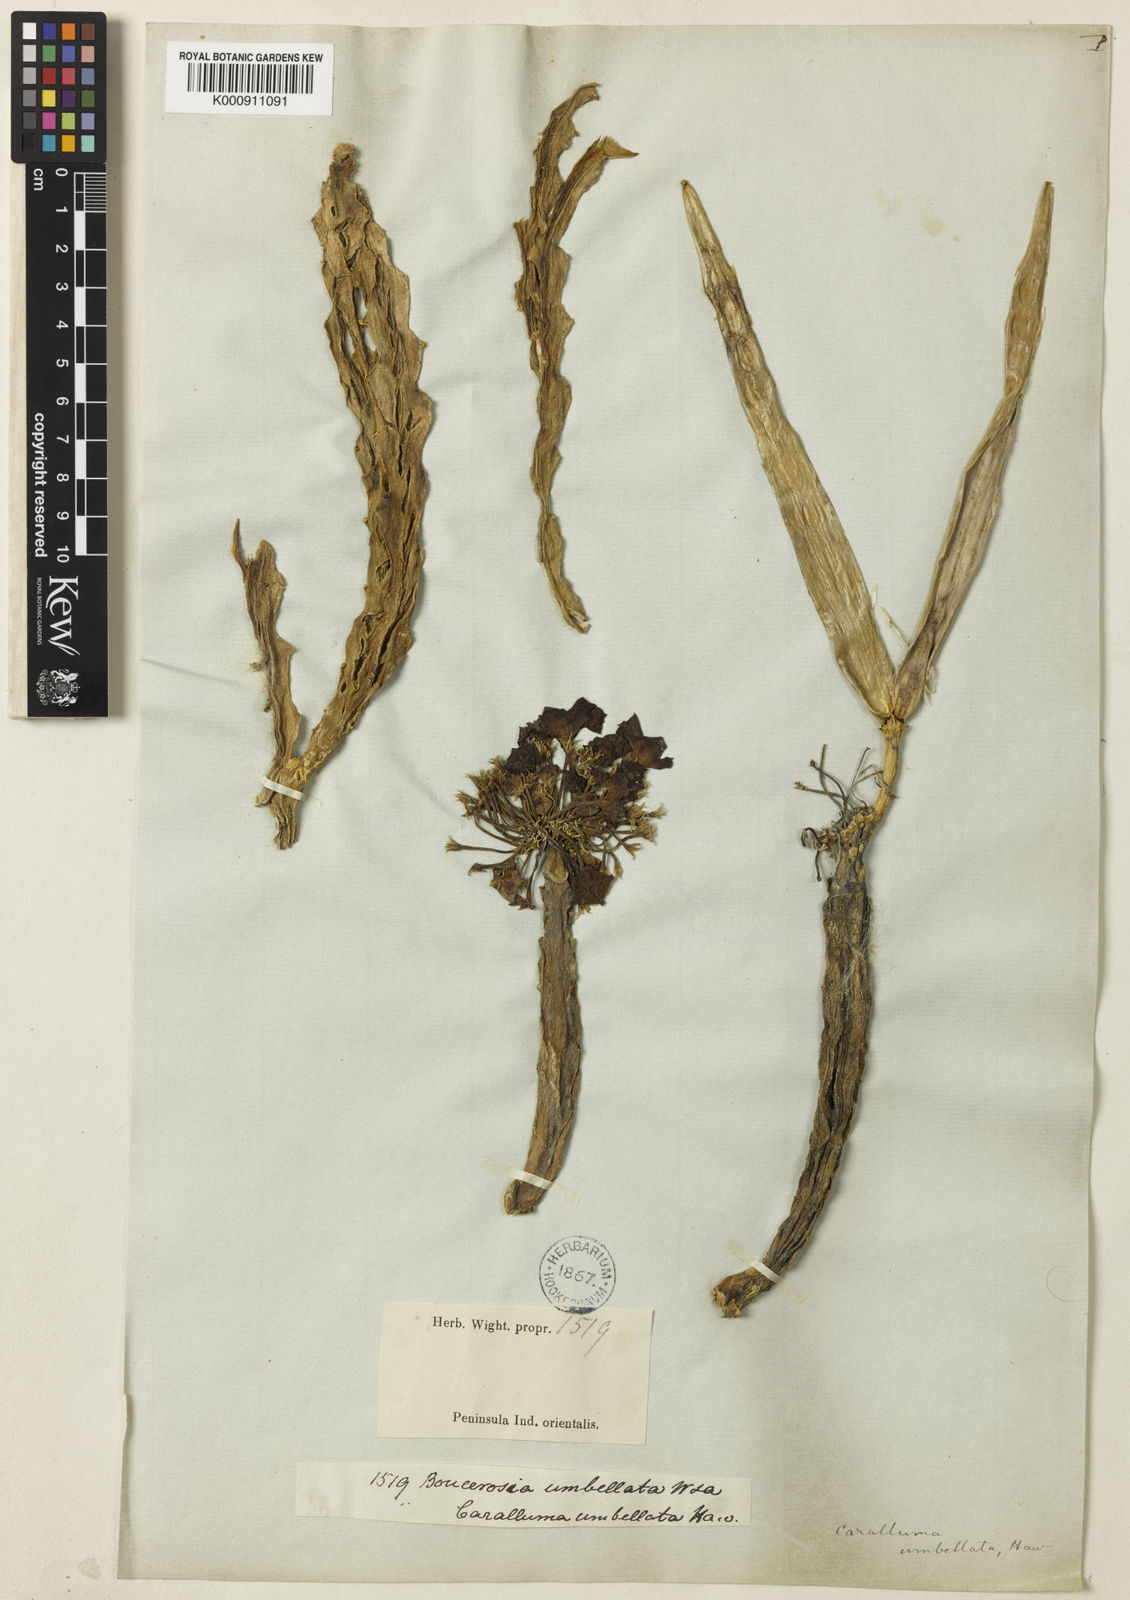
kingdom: Plantae
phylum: Tracheophyta
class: Magnoliopsida
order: Gentianales
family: Apocynaceae
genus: Ceropegia
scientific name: Ceropegia umbellata
